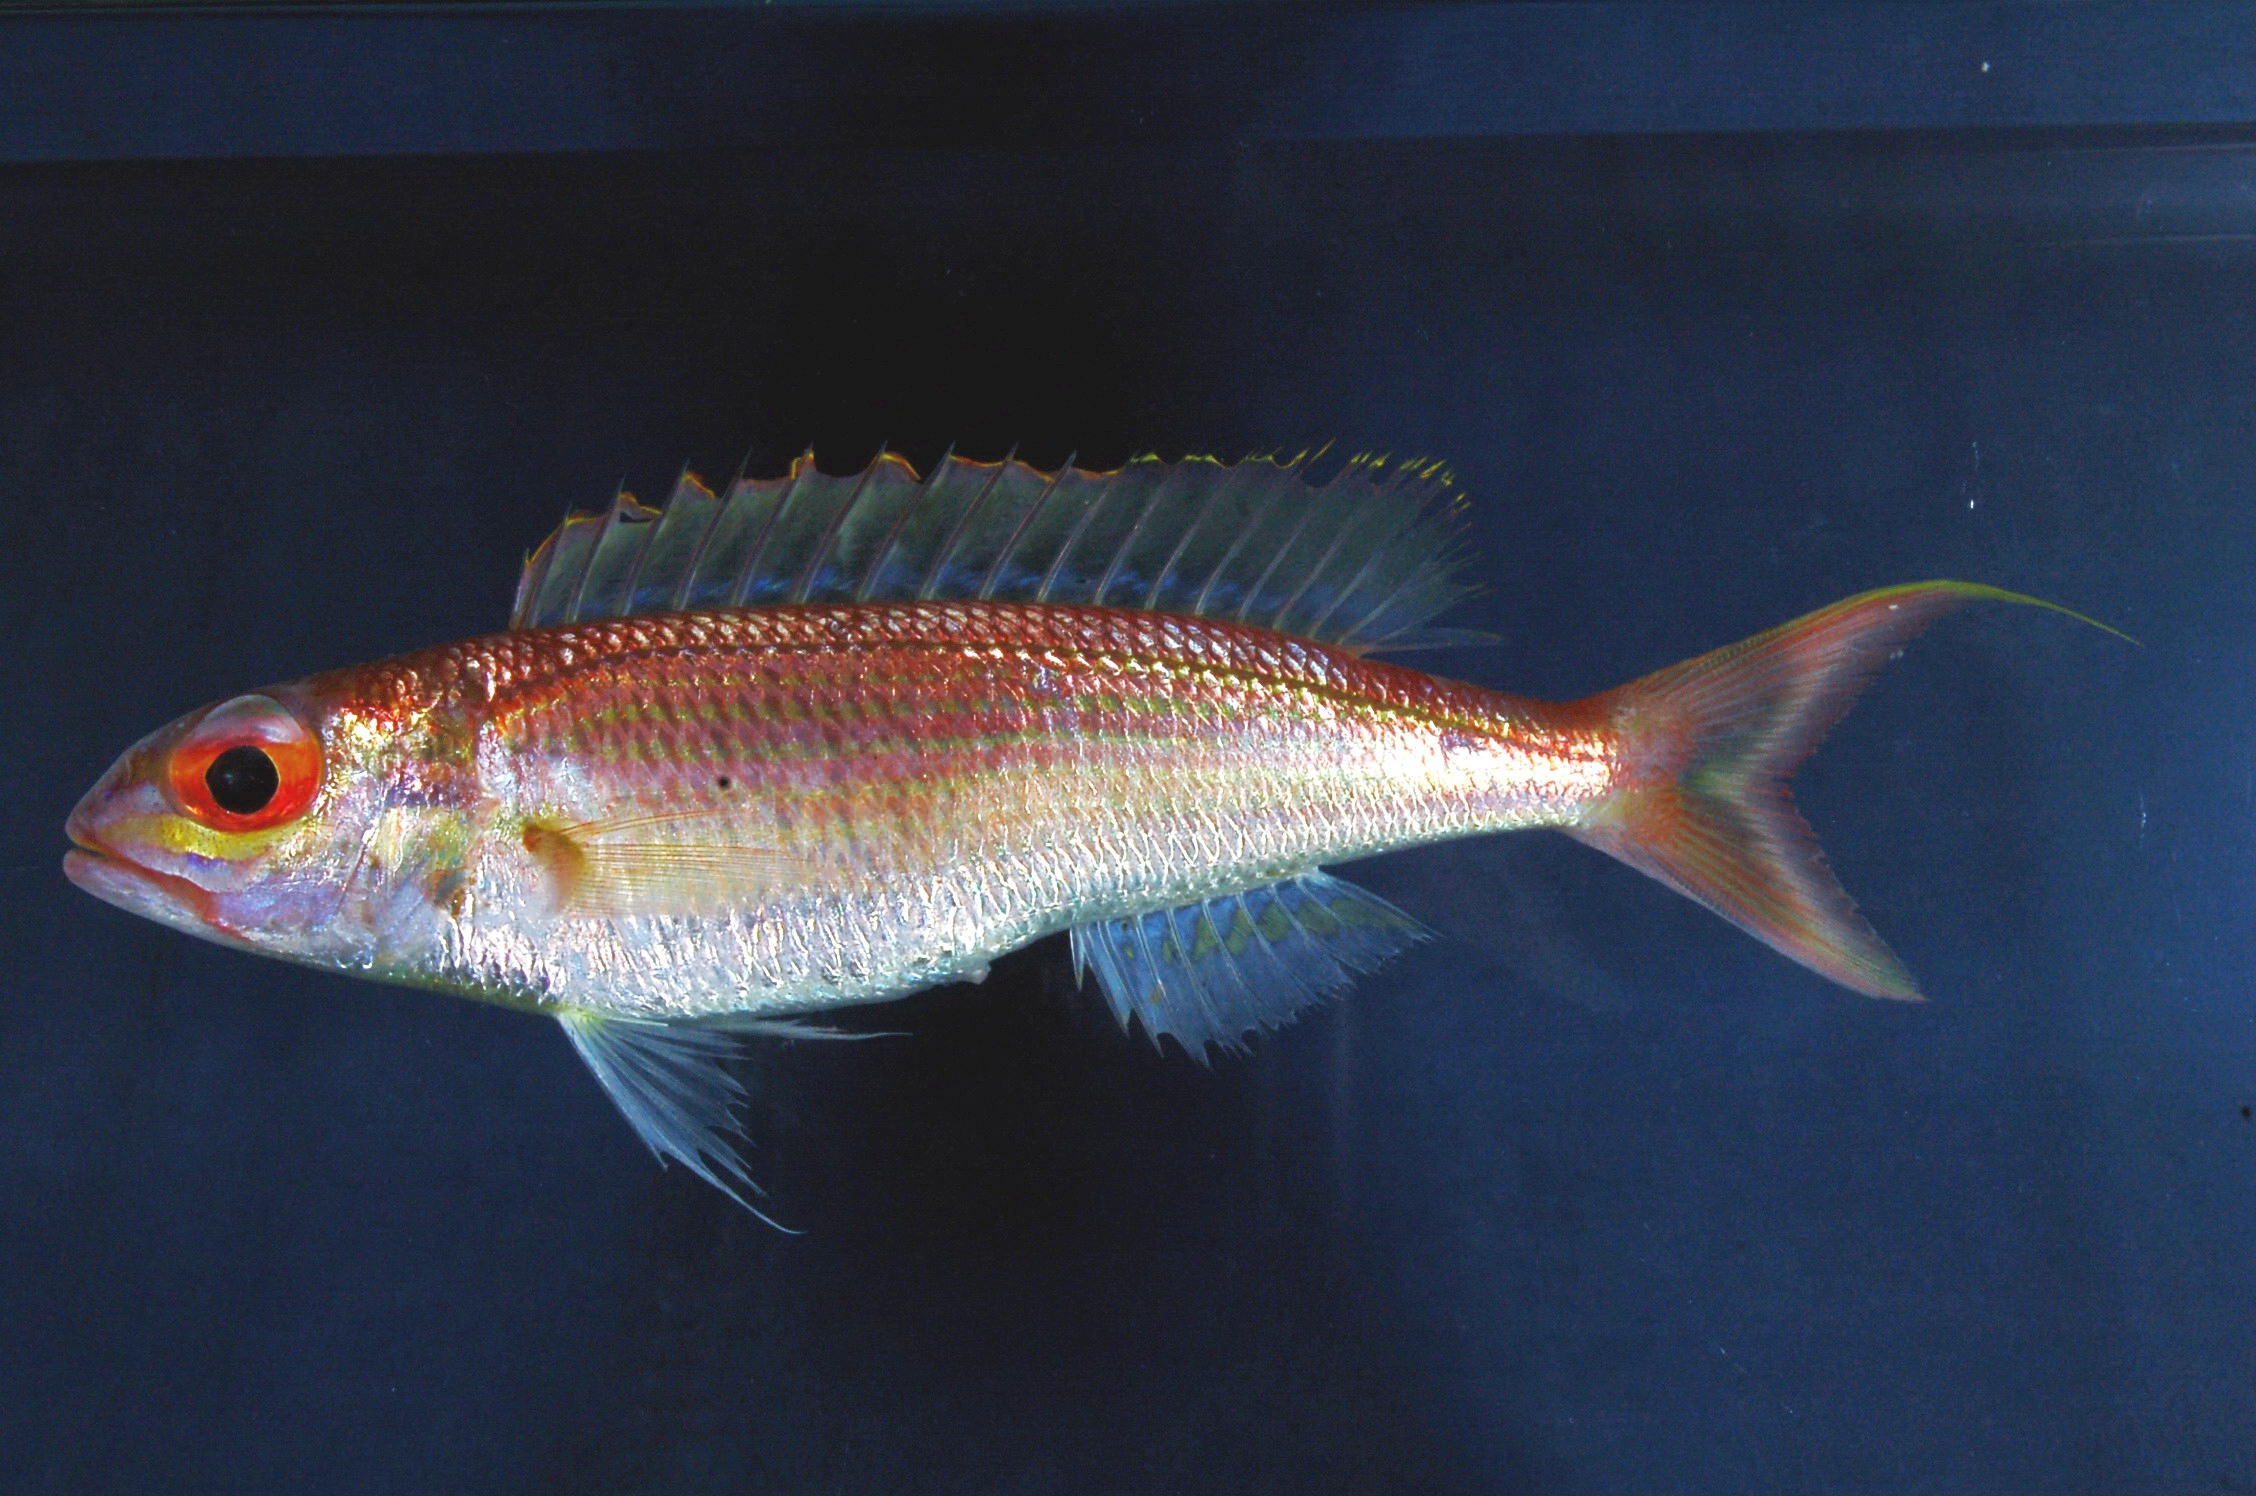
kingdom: Animalia
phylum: Chordata
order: Perciformes
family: Nemipteridae
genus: Nemipterus
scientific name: Nemipterus zysron
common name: Slender threadfin bream
